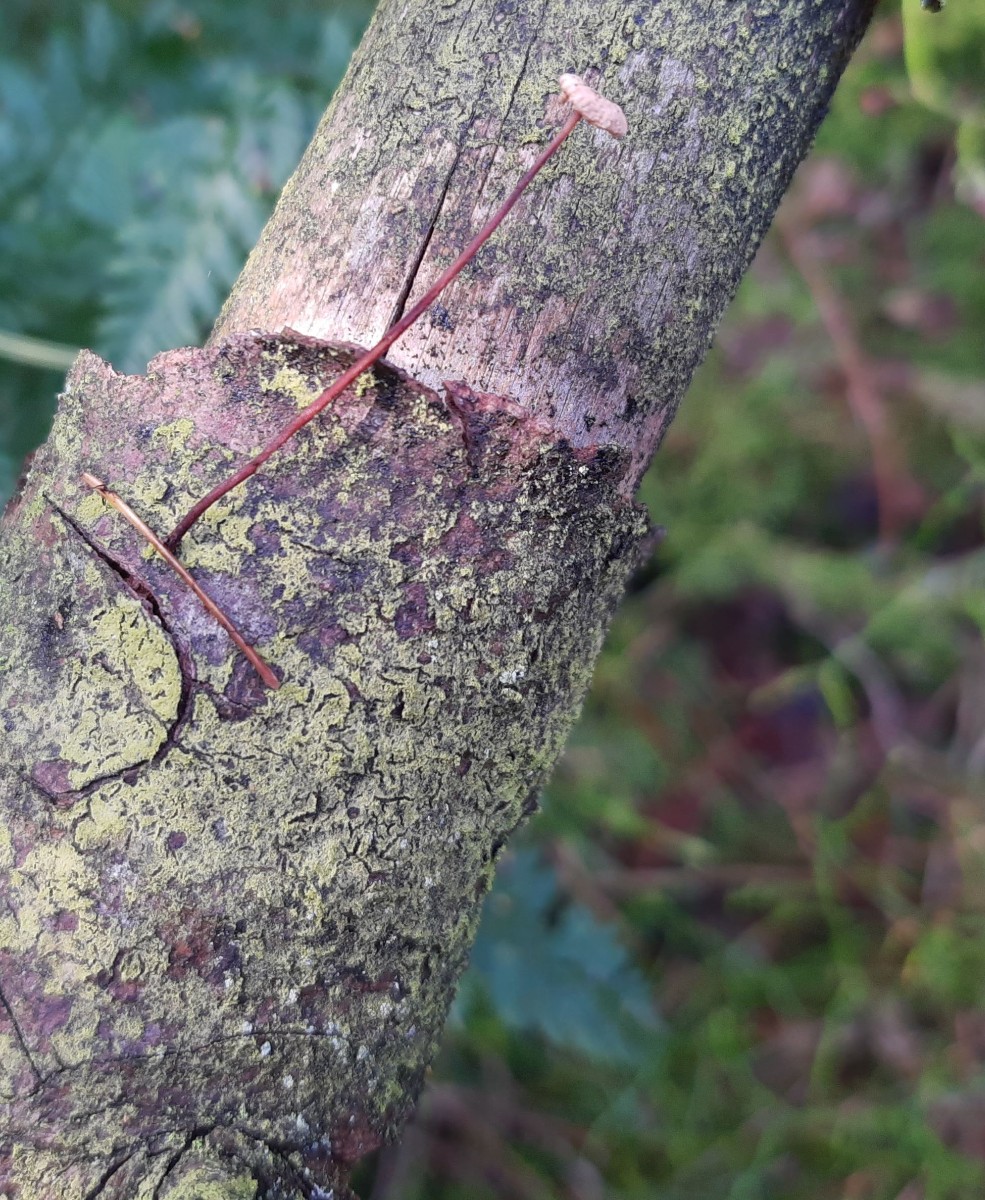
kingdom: Fungi
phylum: Basidiomycota
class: Agaricomycetes
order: Agaricales
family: Omphalotaceae
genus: Paragymnopus
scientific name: Paragymnopus perforans
